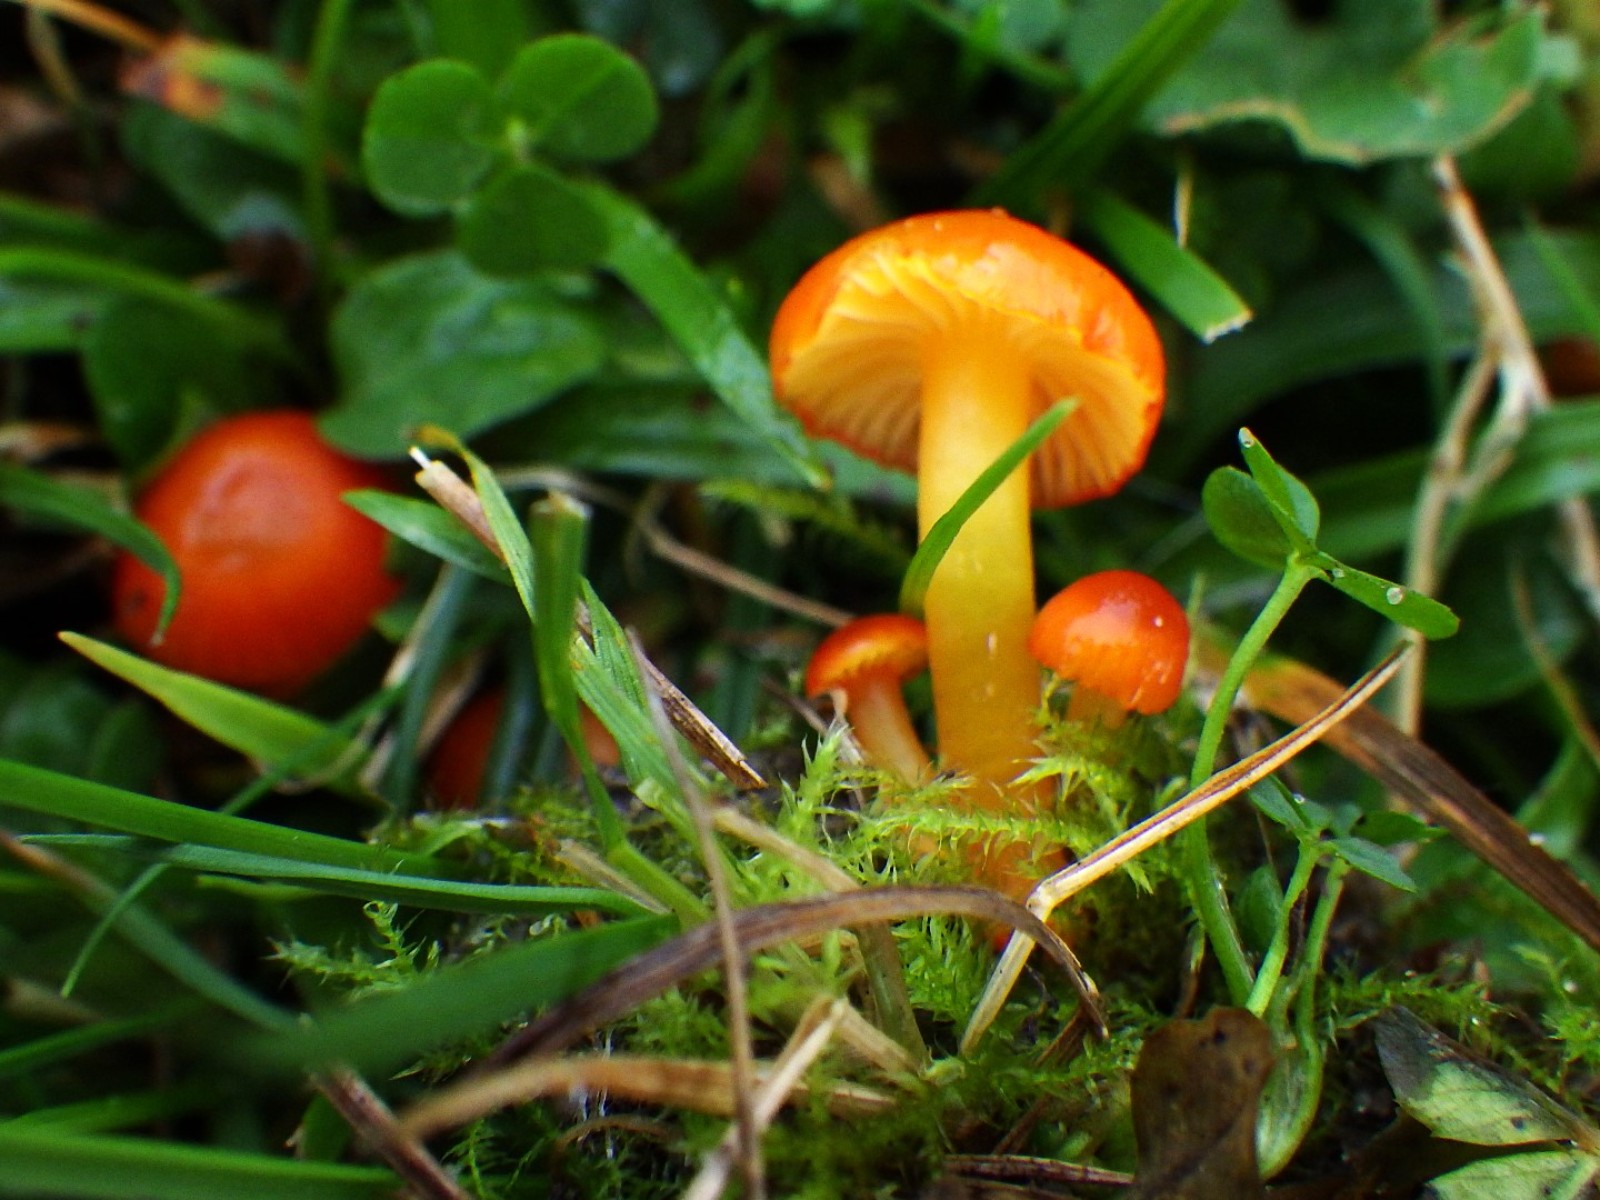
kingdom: Fungi
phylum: Basidiomycota
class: Agaricomycetes
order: Agaricales
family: Hygrophoraceae
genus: Hygrocybe
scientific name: Hygrocybe insipida
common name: liden vokshat
